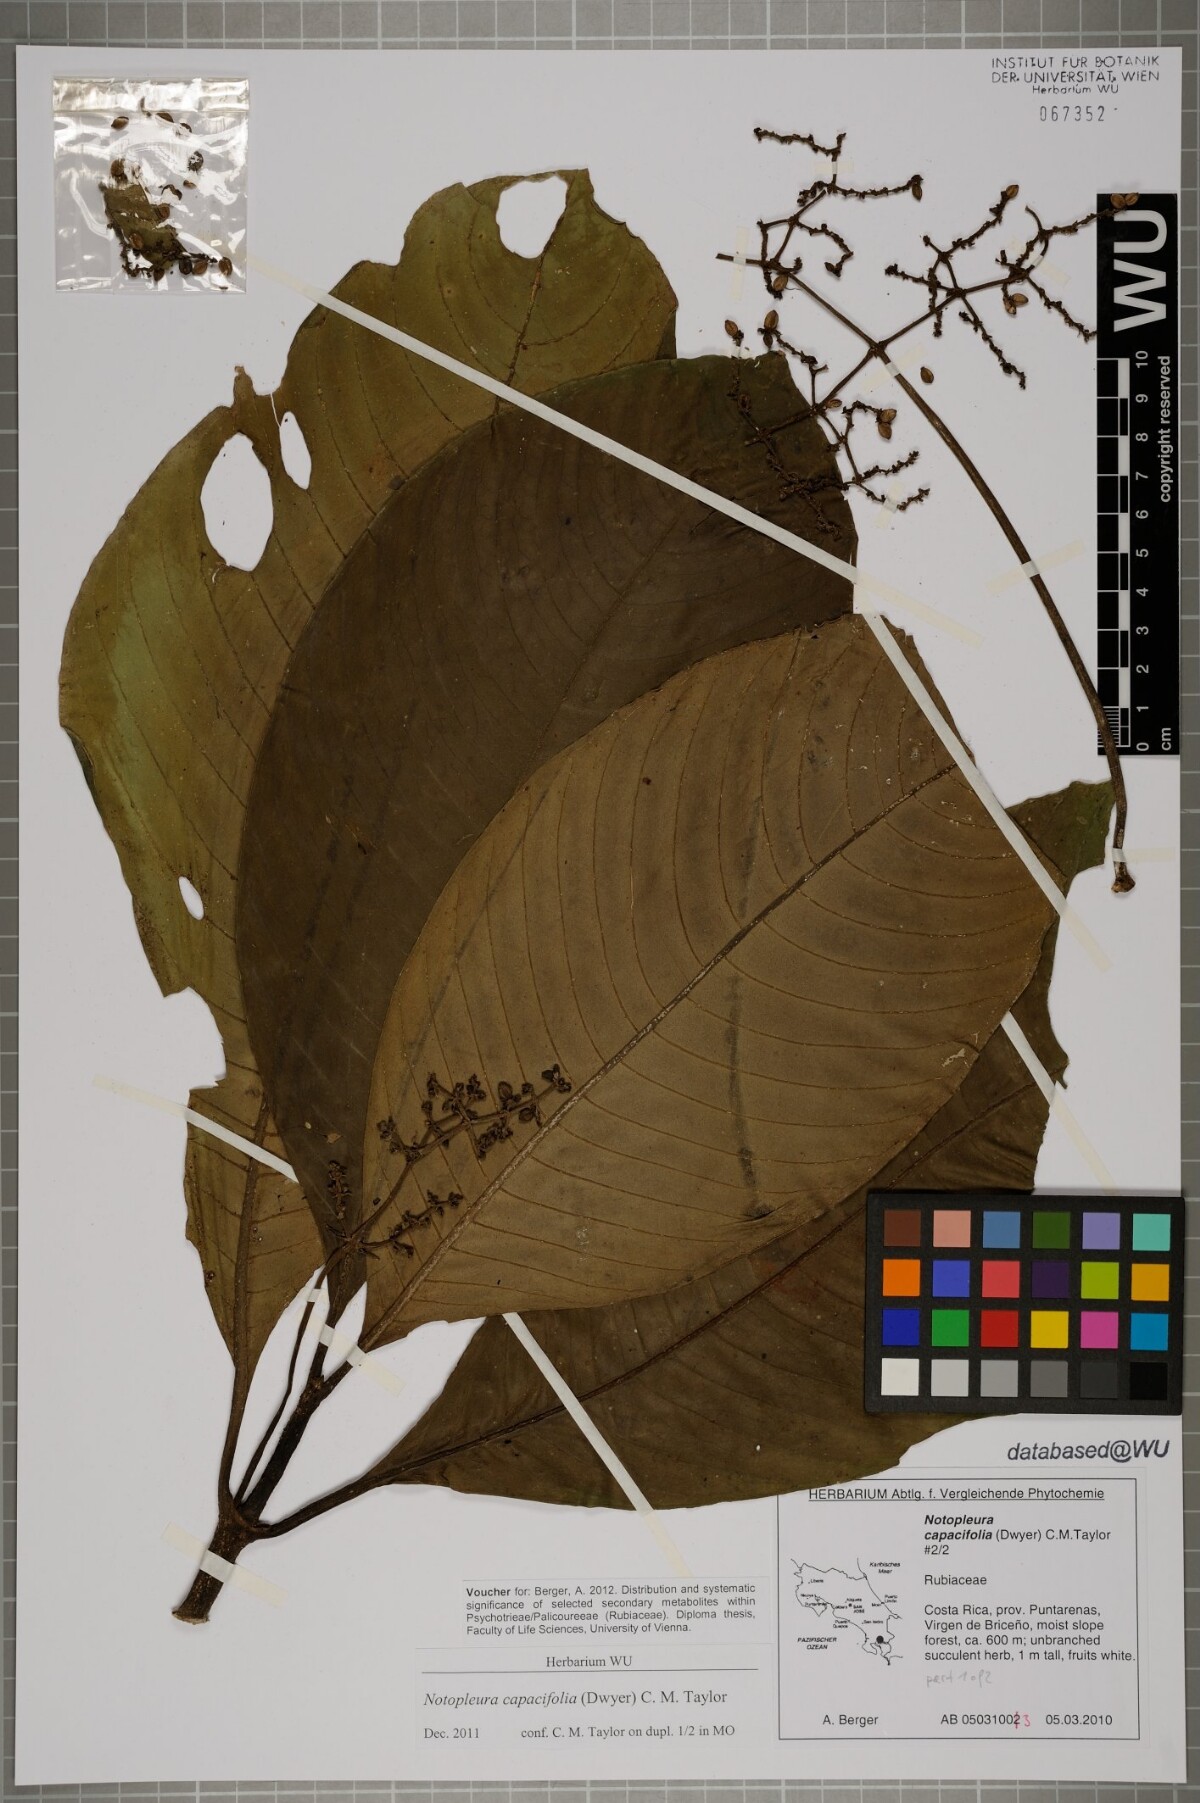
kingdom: Plantae
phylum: Tracheophyta
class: Magnoliopsida
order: Gentianales
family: Rubiaceae
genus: Notopleura
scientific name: Notopleura capacifolia
